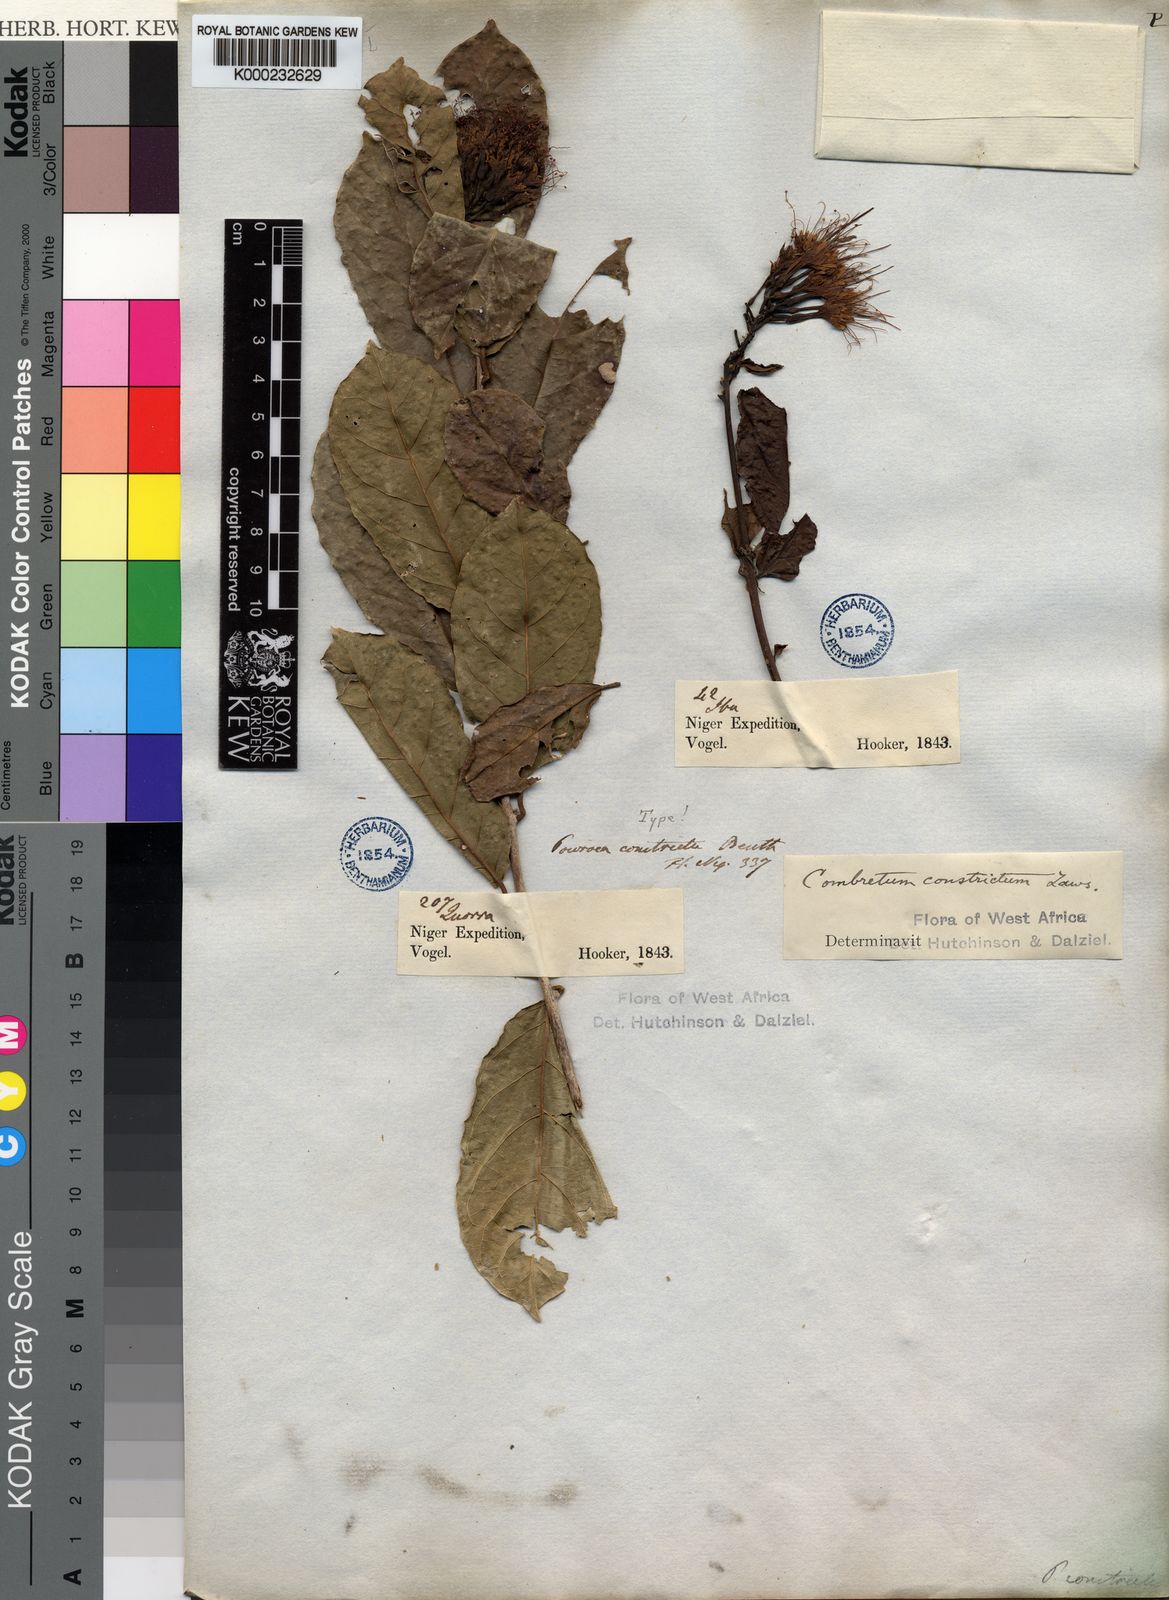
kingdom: Plantae
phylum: Tracheophyta
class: Magnoliopsida
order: Myrtales
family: Combretaceae
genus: Combretum
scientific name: Combretum constrictum
